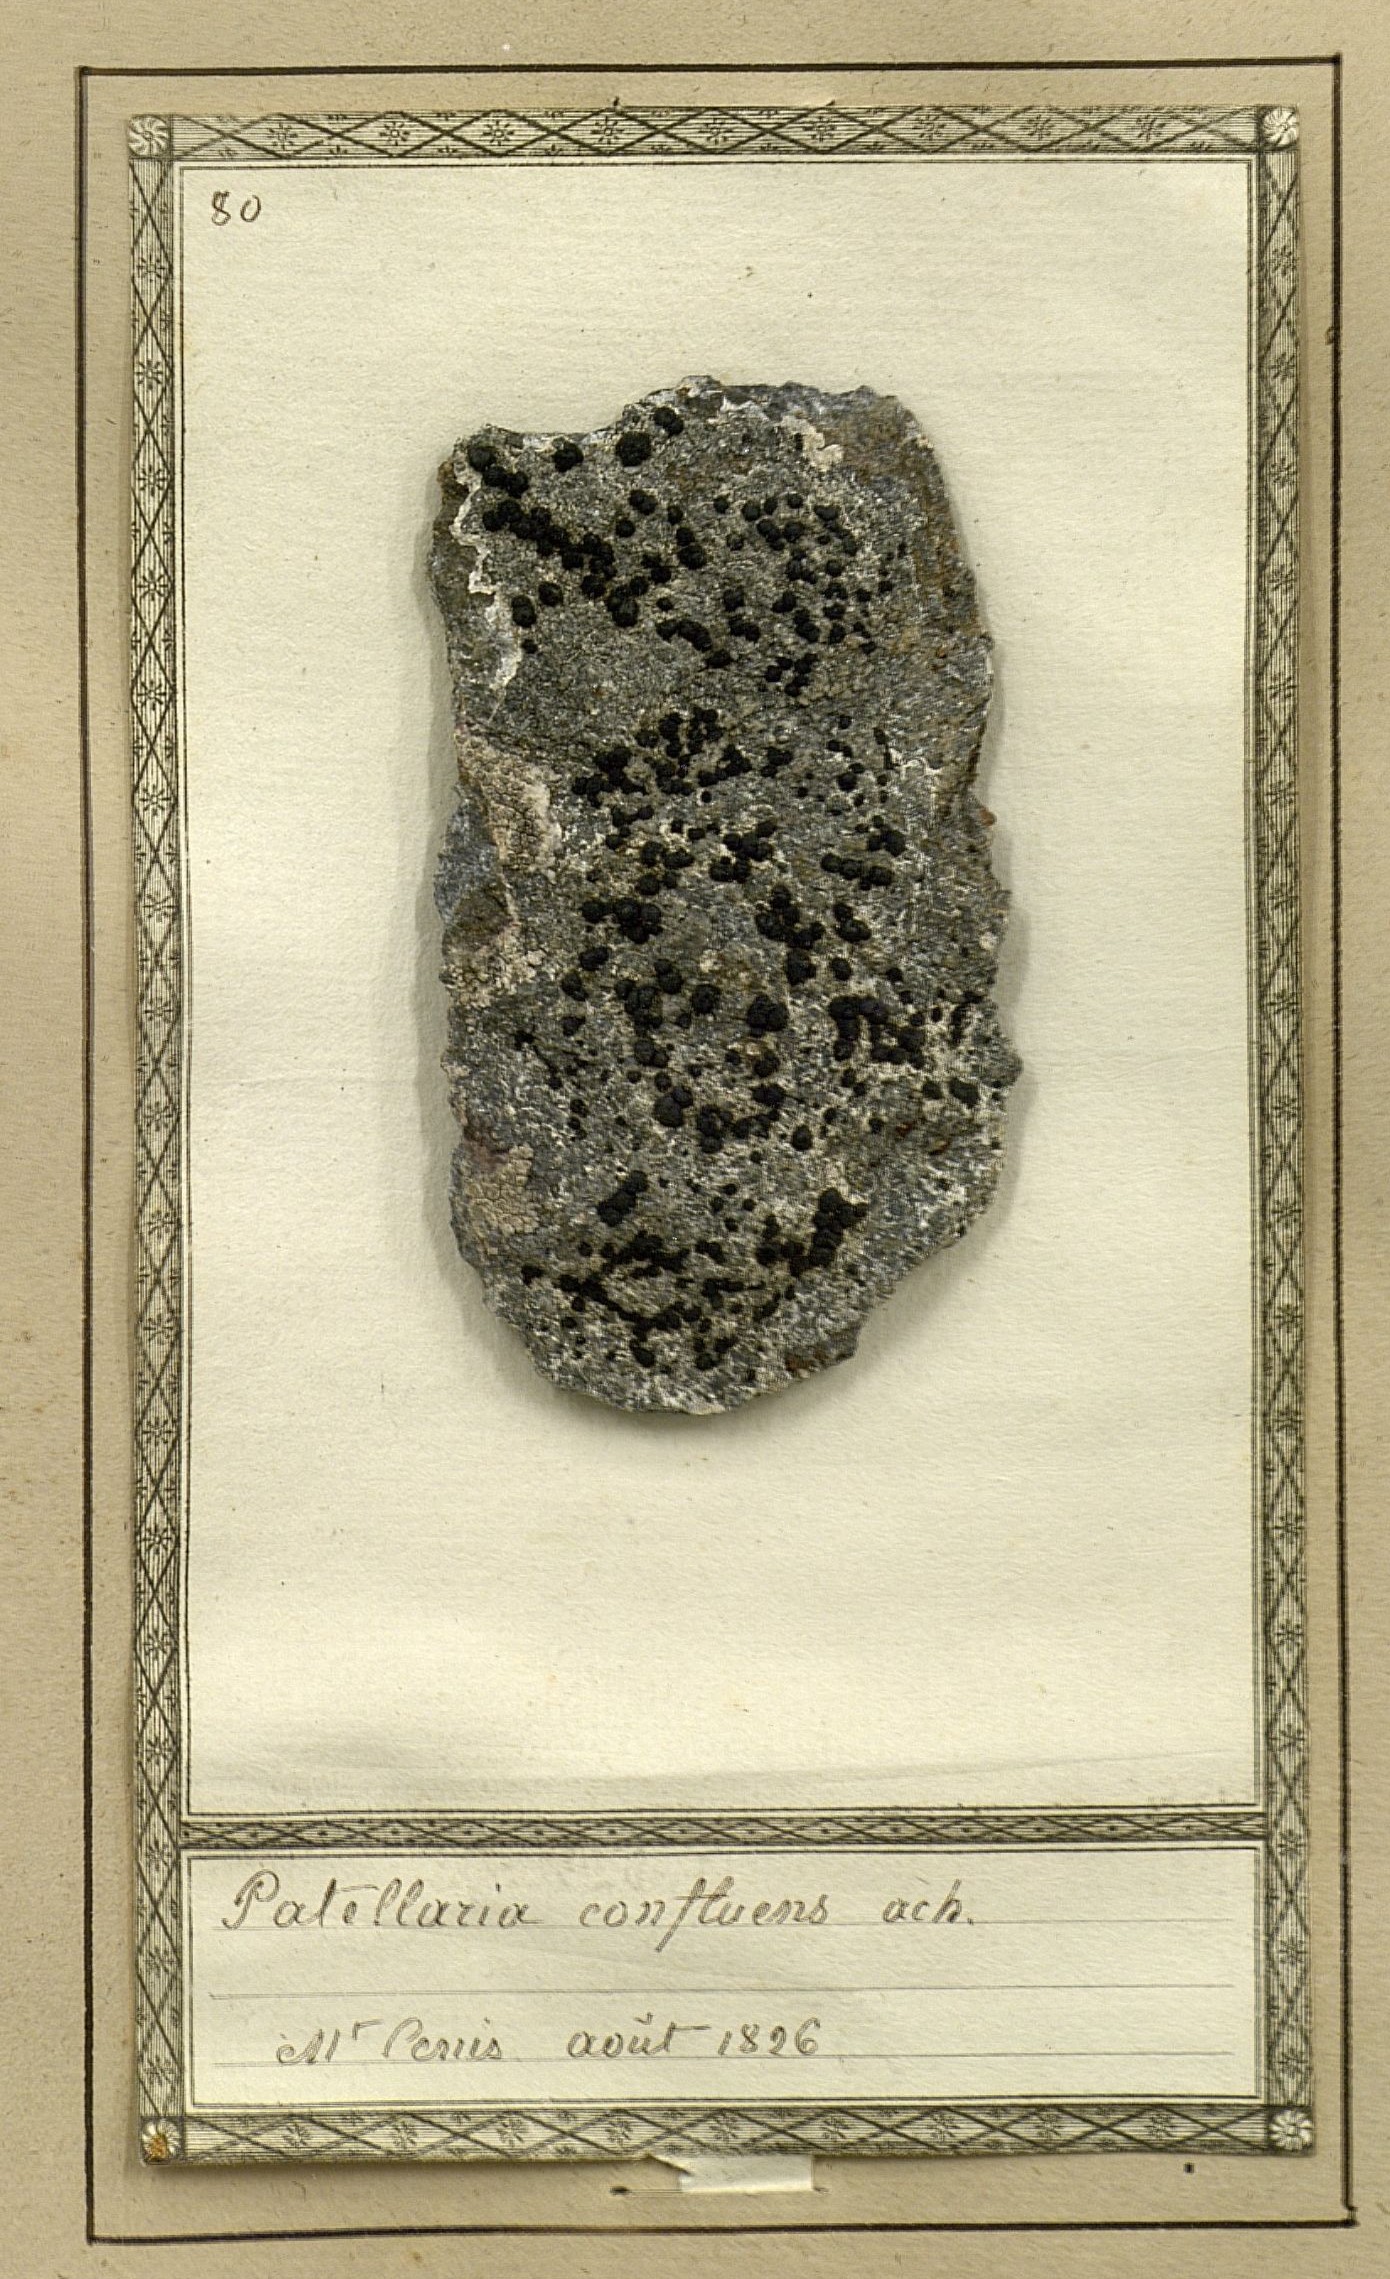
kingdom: Fungi
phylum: Ascomycota
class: Lecanoromycetes
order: Lecideales
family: Lecideaceae
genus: Lecidea
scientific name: Lecidea confluens
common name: Confluent disc lichen
